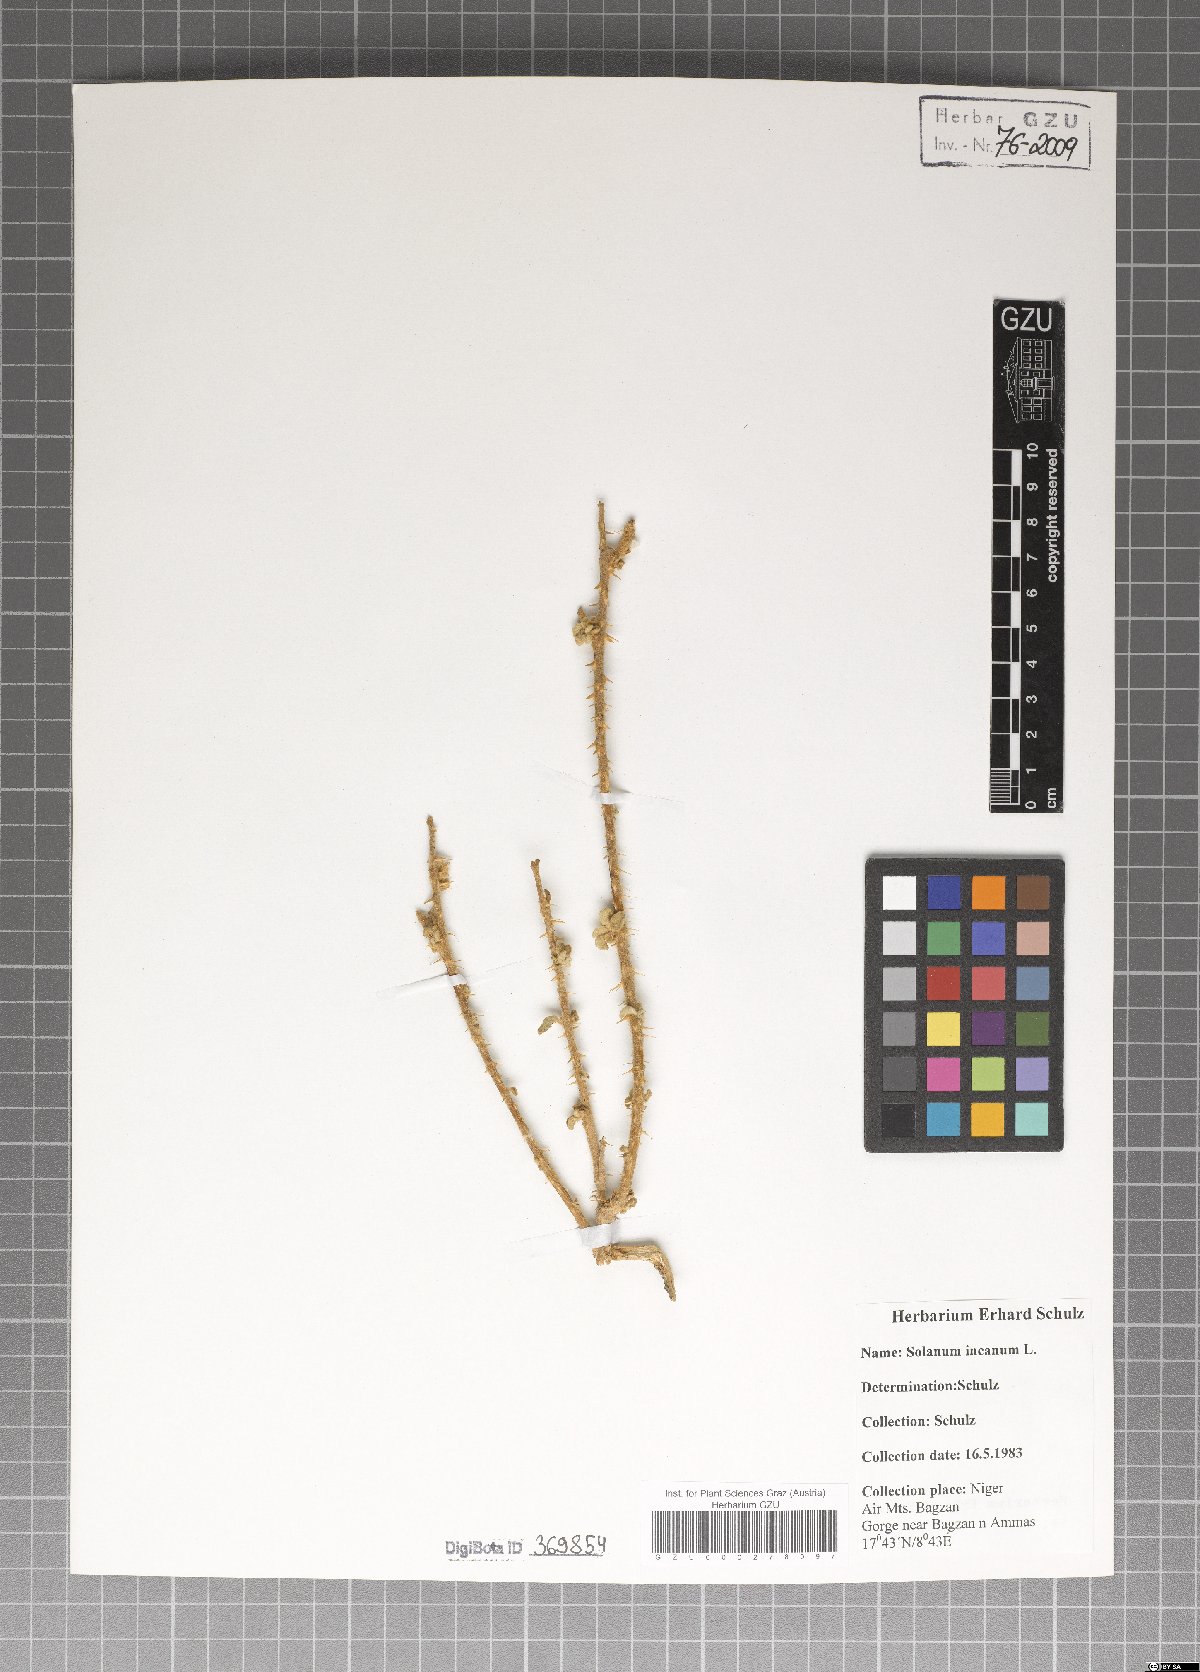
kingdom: Plantae
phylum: Tracheophyta
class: Magnoliopsida
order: Solanales
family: Solanaceae
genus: Solanum
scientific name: Solanum incanum
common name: Bitter apple
